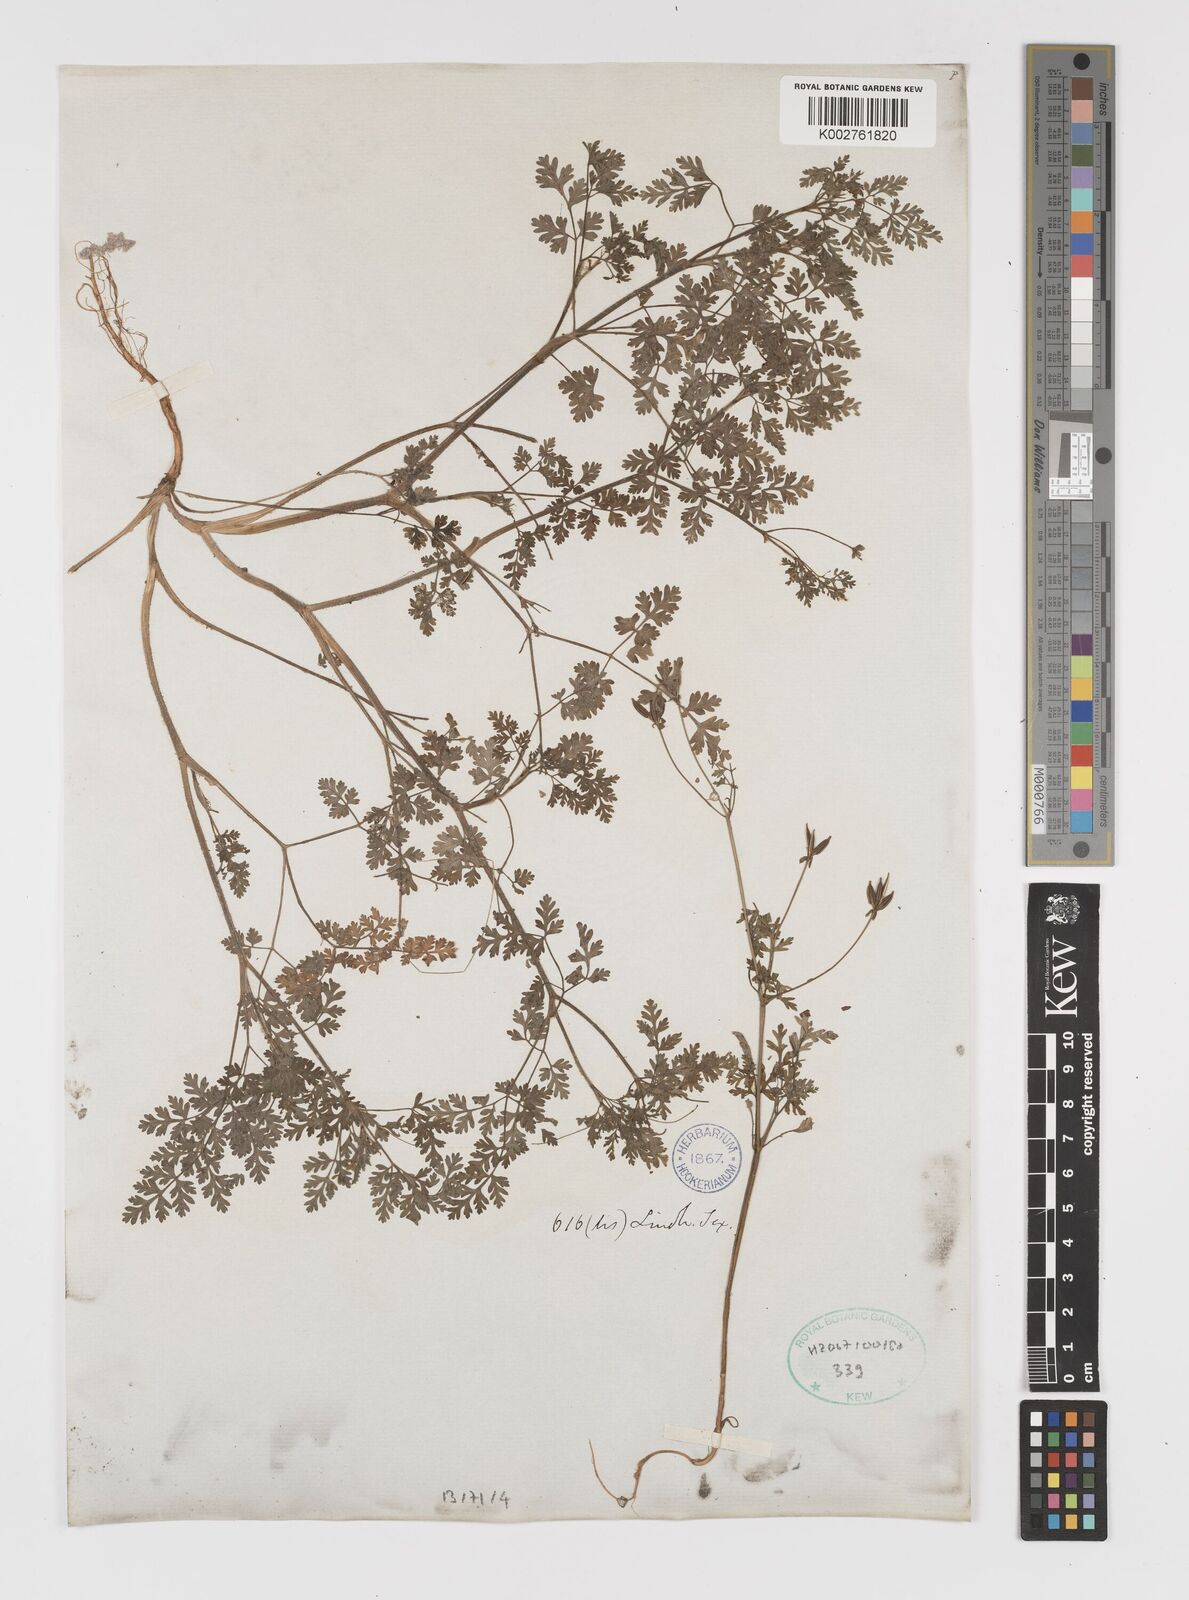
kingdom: Plantae
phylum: Tracheophyta
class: Magnoliopsida
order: Apiales
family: Apiaceae
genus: Chaerophyllum
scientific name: Chaerophyllum tainturieri
